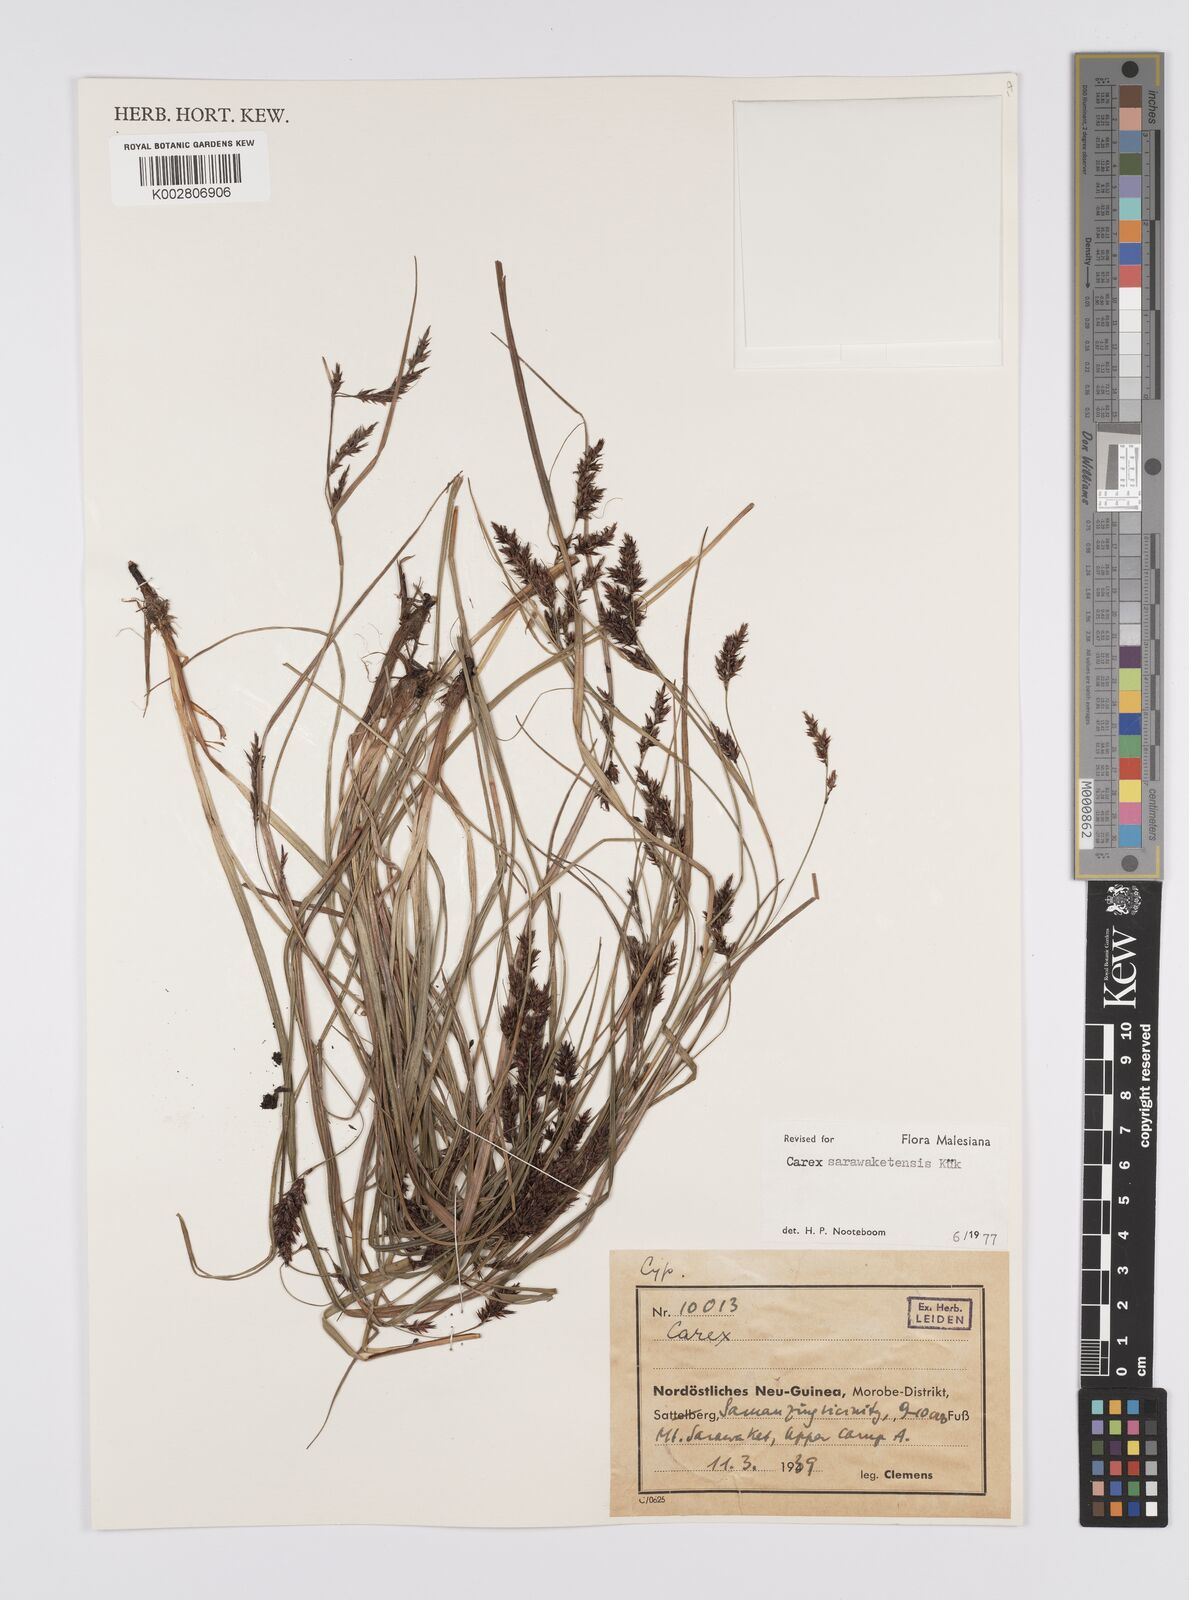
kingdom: Plantae
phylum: Tracheophyta
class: Liliopsida
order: Poales
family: Cyperaceae
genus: Carex
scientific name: Carex sarawaketensis
